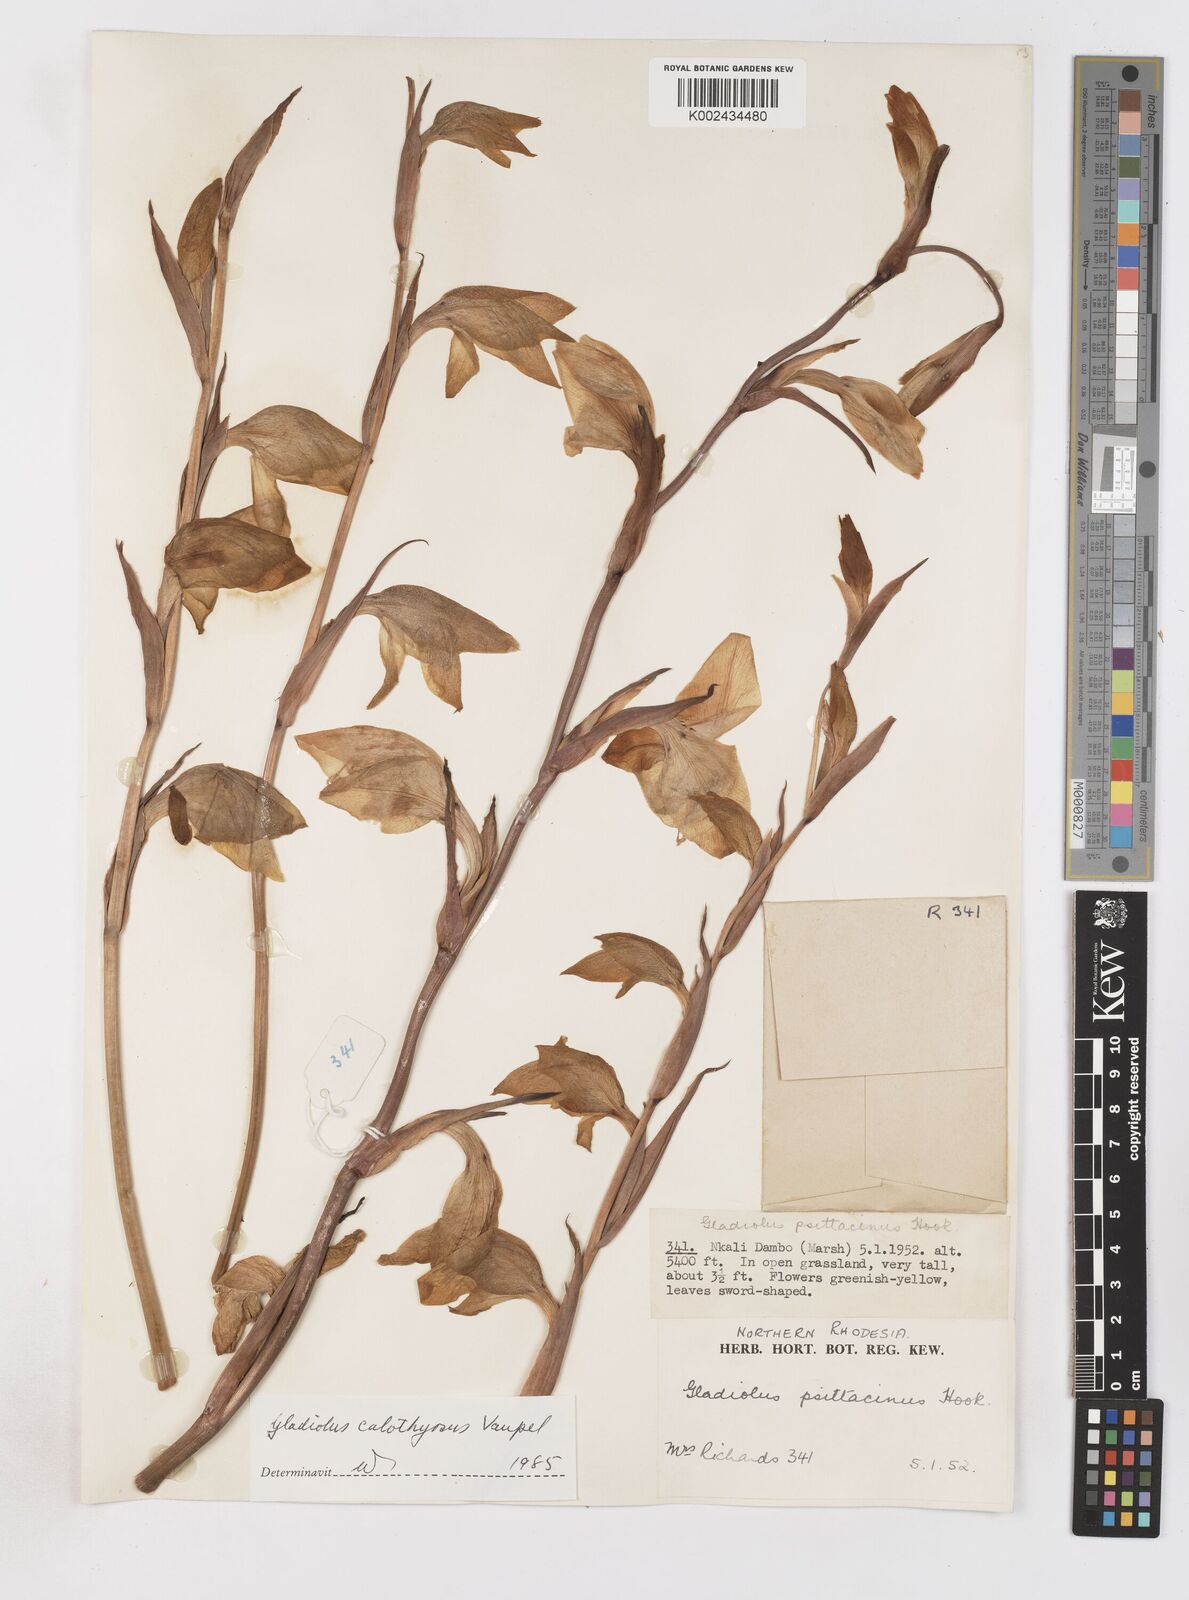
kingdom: Plantae
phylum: Tracheophyta
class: Liliopsida
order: Asparagales
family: Iridaceae
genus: Gladiolus
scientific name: Gladiolus dalenii
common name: Cornflag
